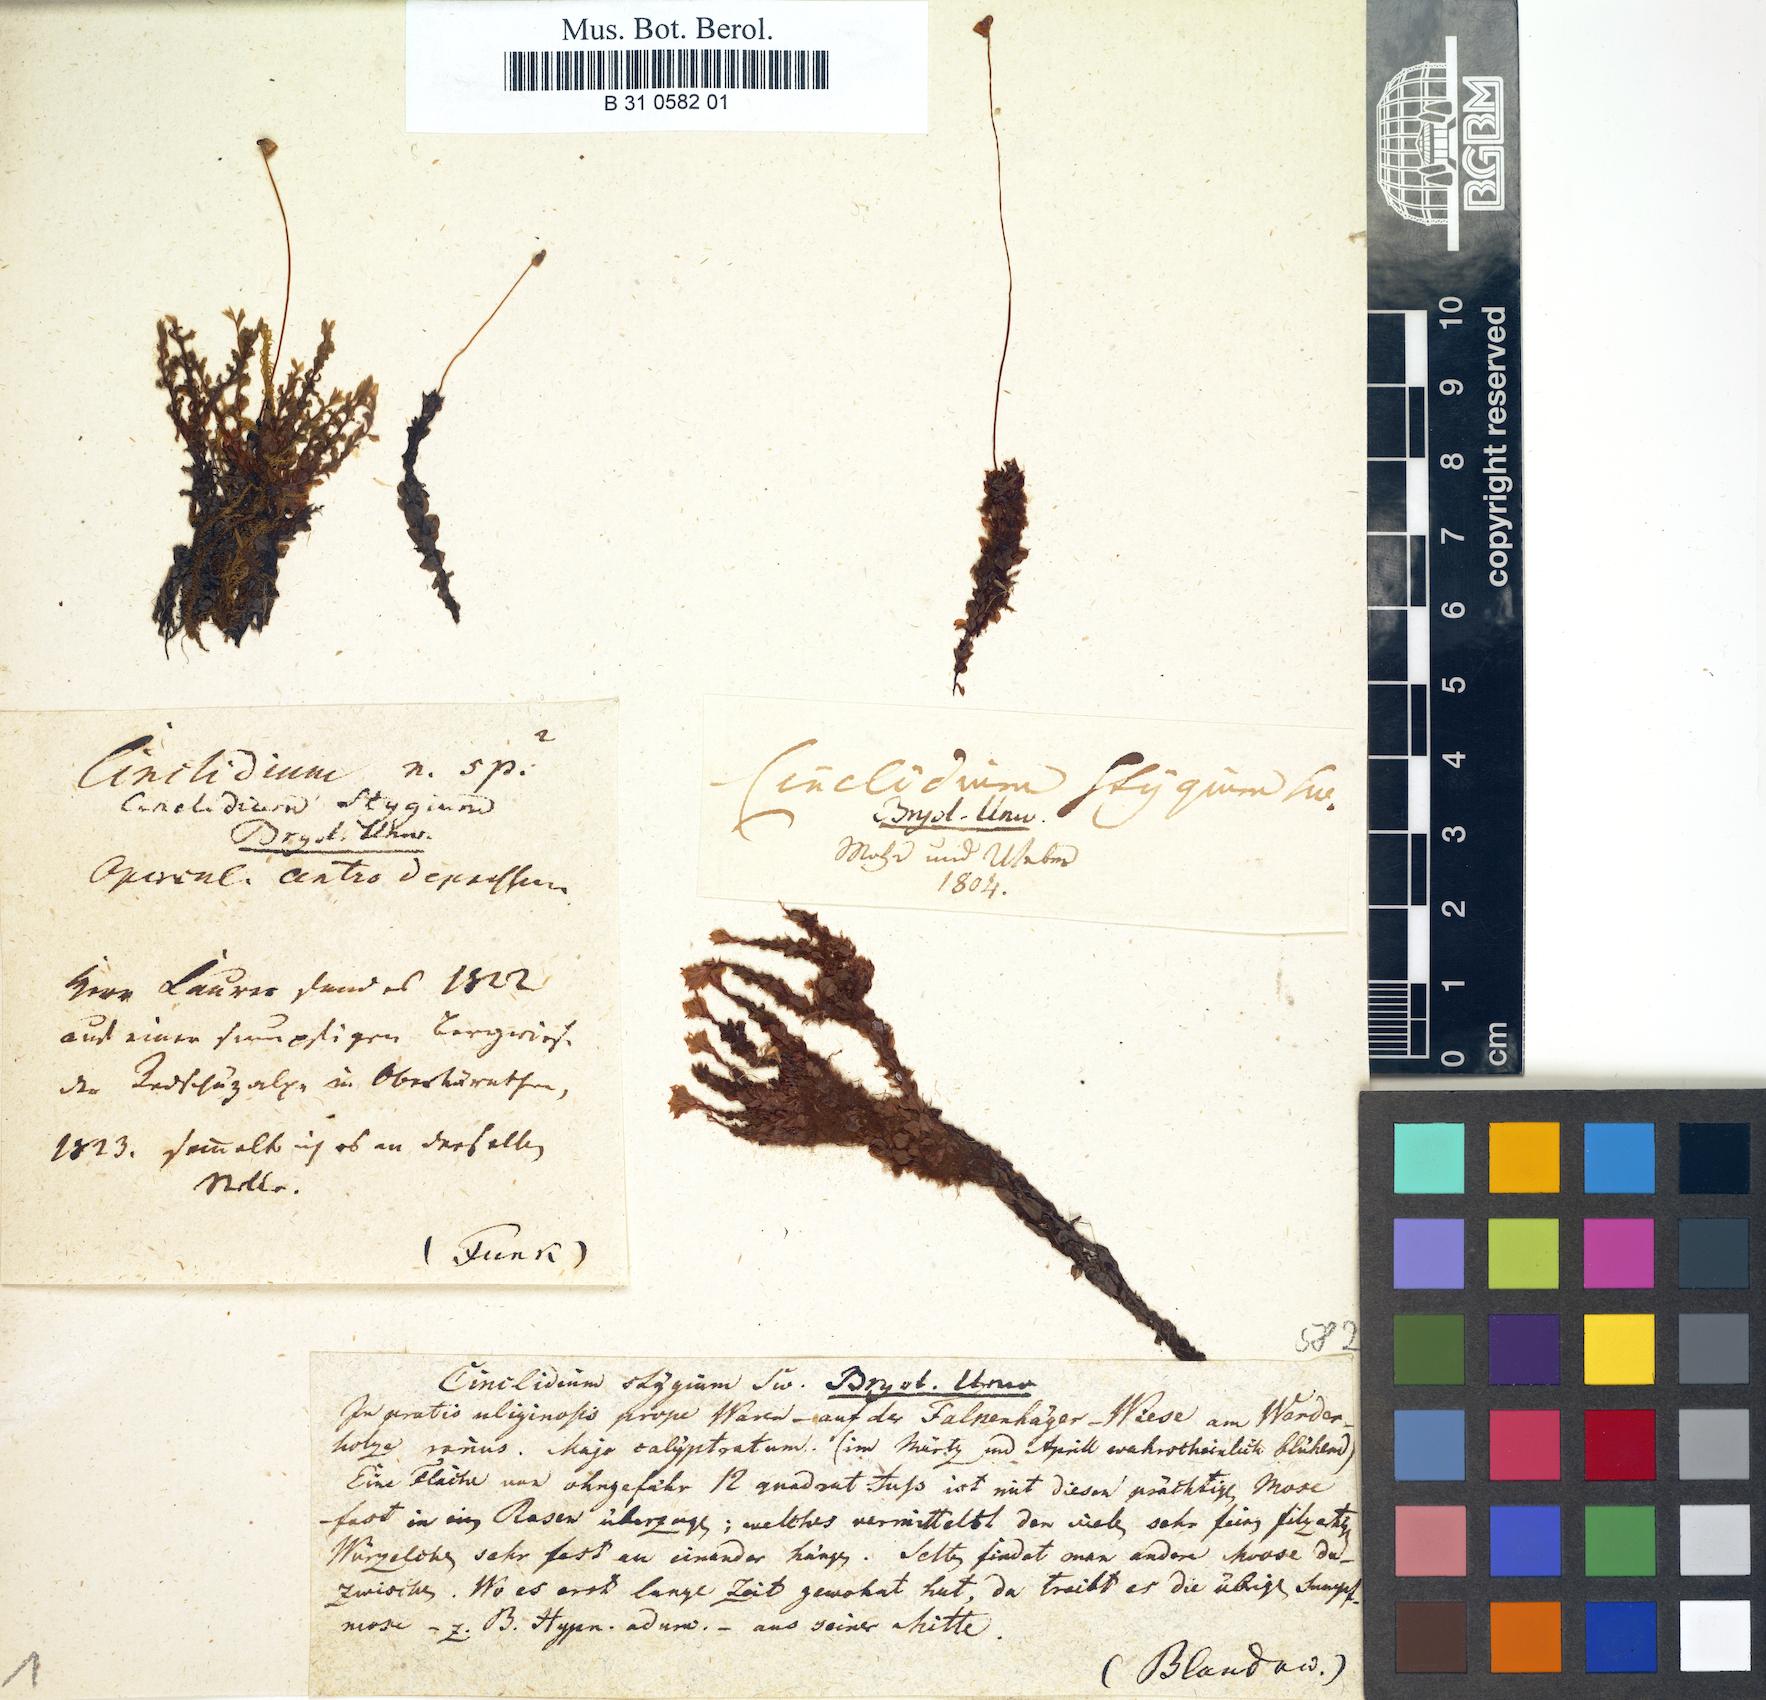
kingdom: Plantae
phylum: Bryophyta
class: Bryopsida
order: Bryales
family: Mniaceae
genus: Cinclidium
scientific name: Cinclidium stygium
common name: Sooty cupola moss
